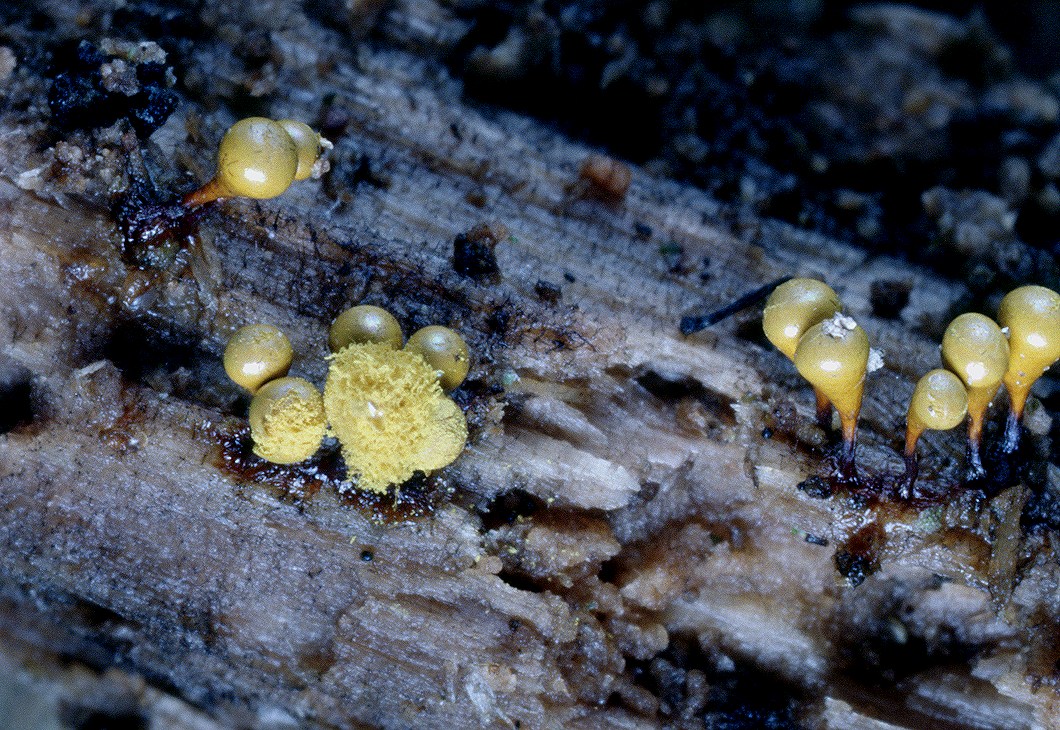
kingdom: Protozoa
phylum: Mycetozoa
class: Myxomycetes
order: Trichiales
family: Arcyriaceae
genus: Hemitrichia
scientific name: Hemitrichia decipiens
